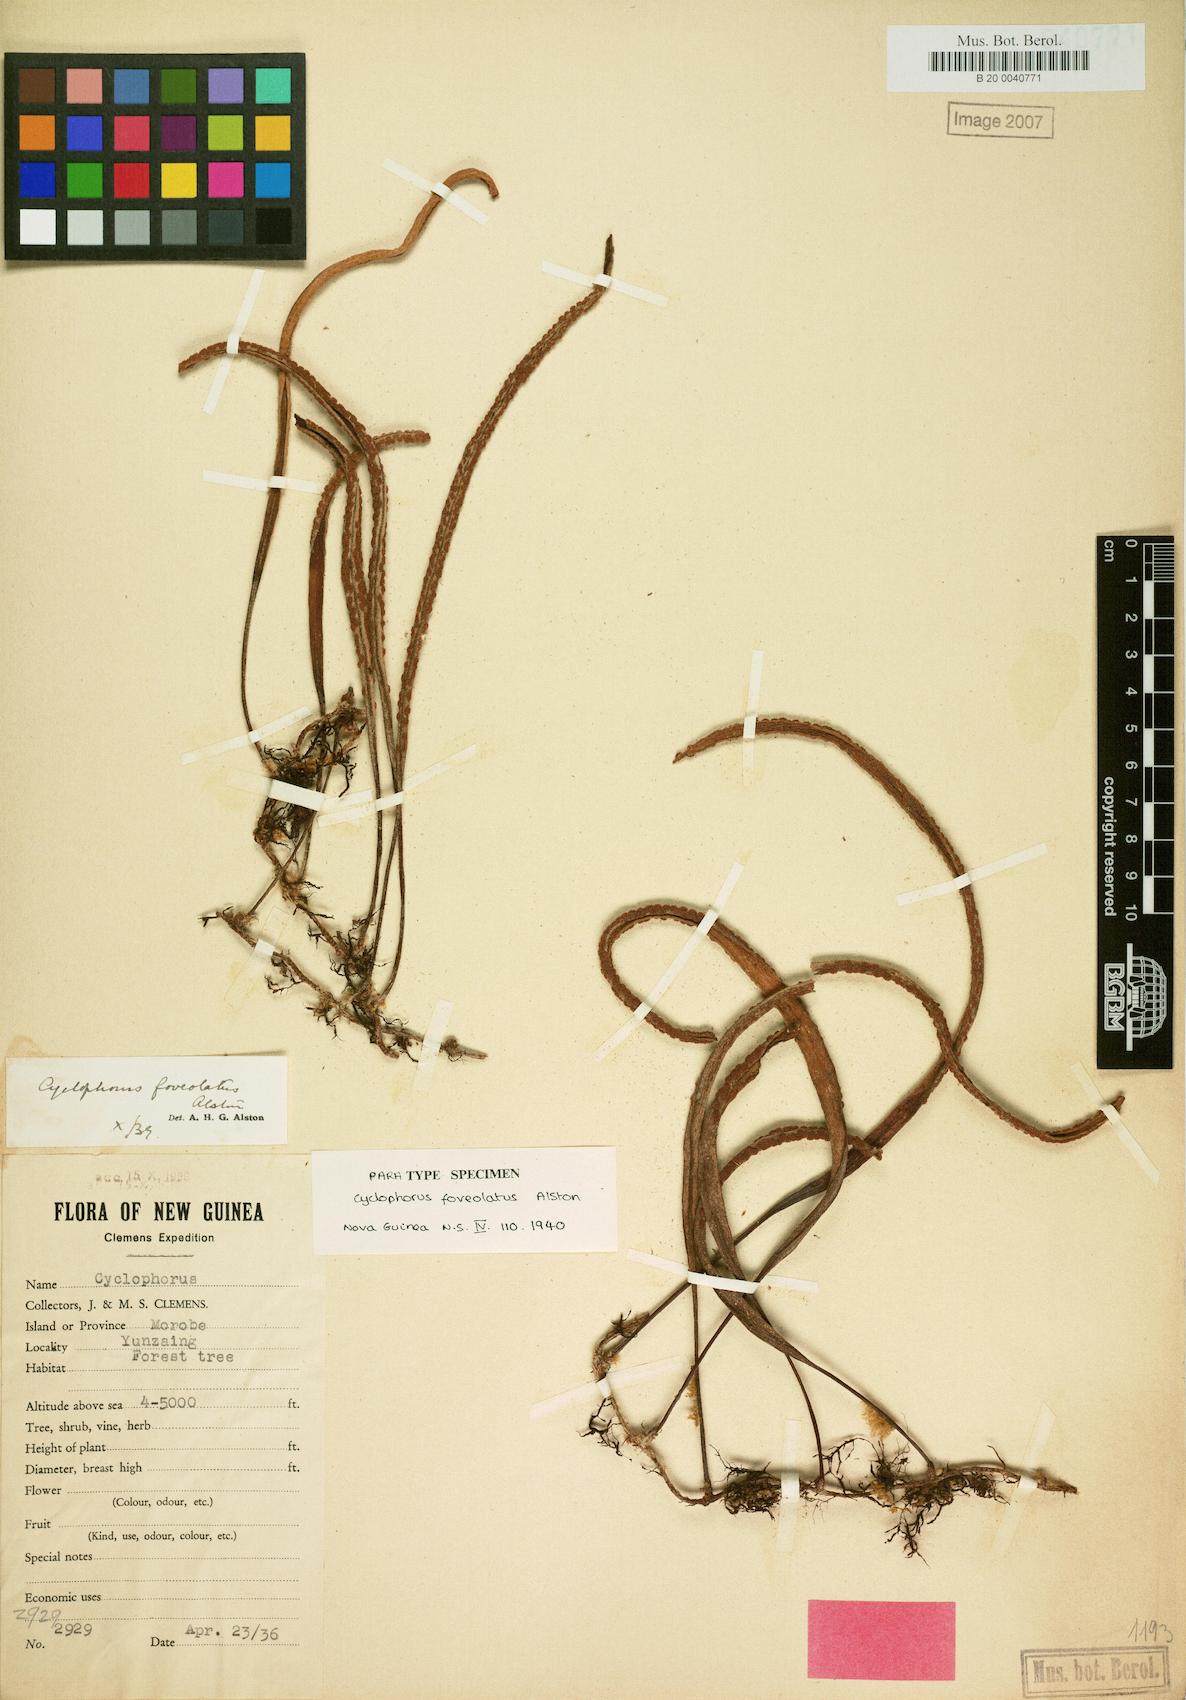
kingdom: Plantae
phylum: Tracheophyta
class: Polypodiopsida
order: Polypodiales
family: Polypodiaceae
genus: Pyrrosia
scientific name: Pyrrosia foveolata
